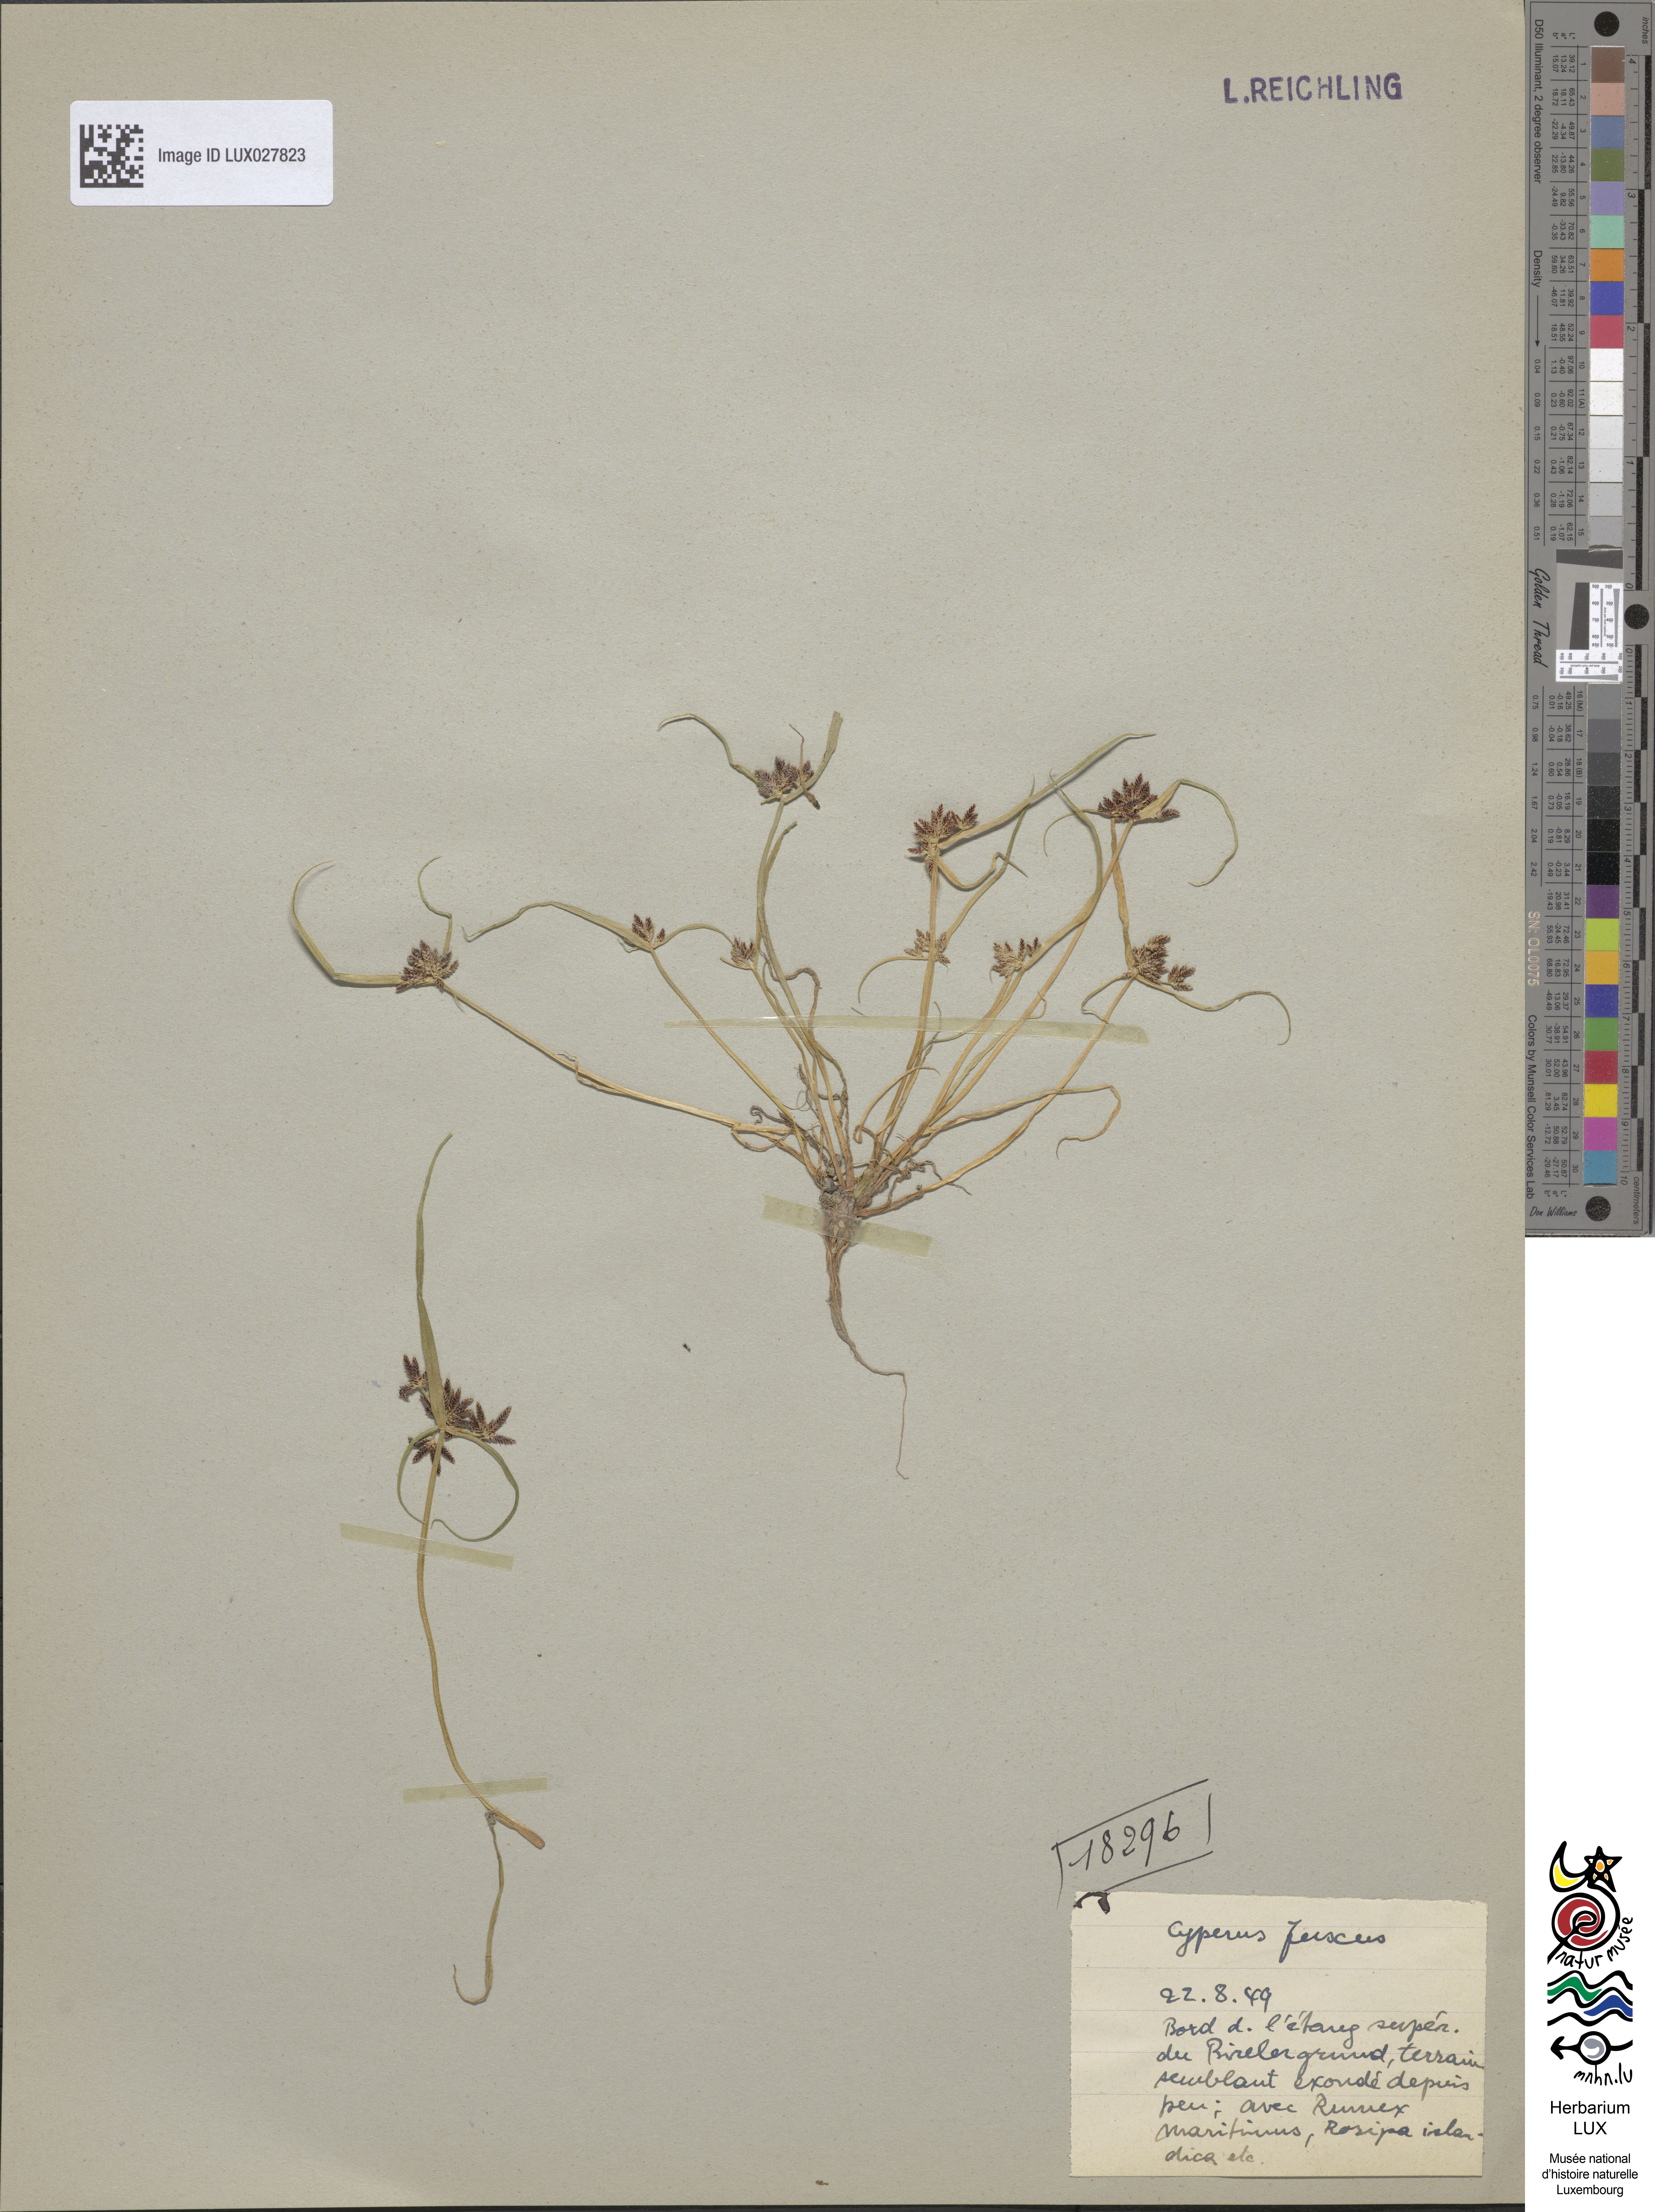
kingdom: Plantae
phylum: Tracheophyta
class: Liliopsida
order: Poales
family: Cyperaceae
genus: Cyperus
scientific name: Cyperus fuscus
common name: Brown galingale
